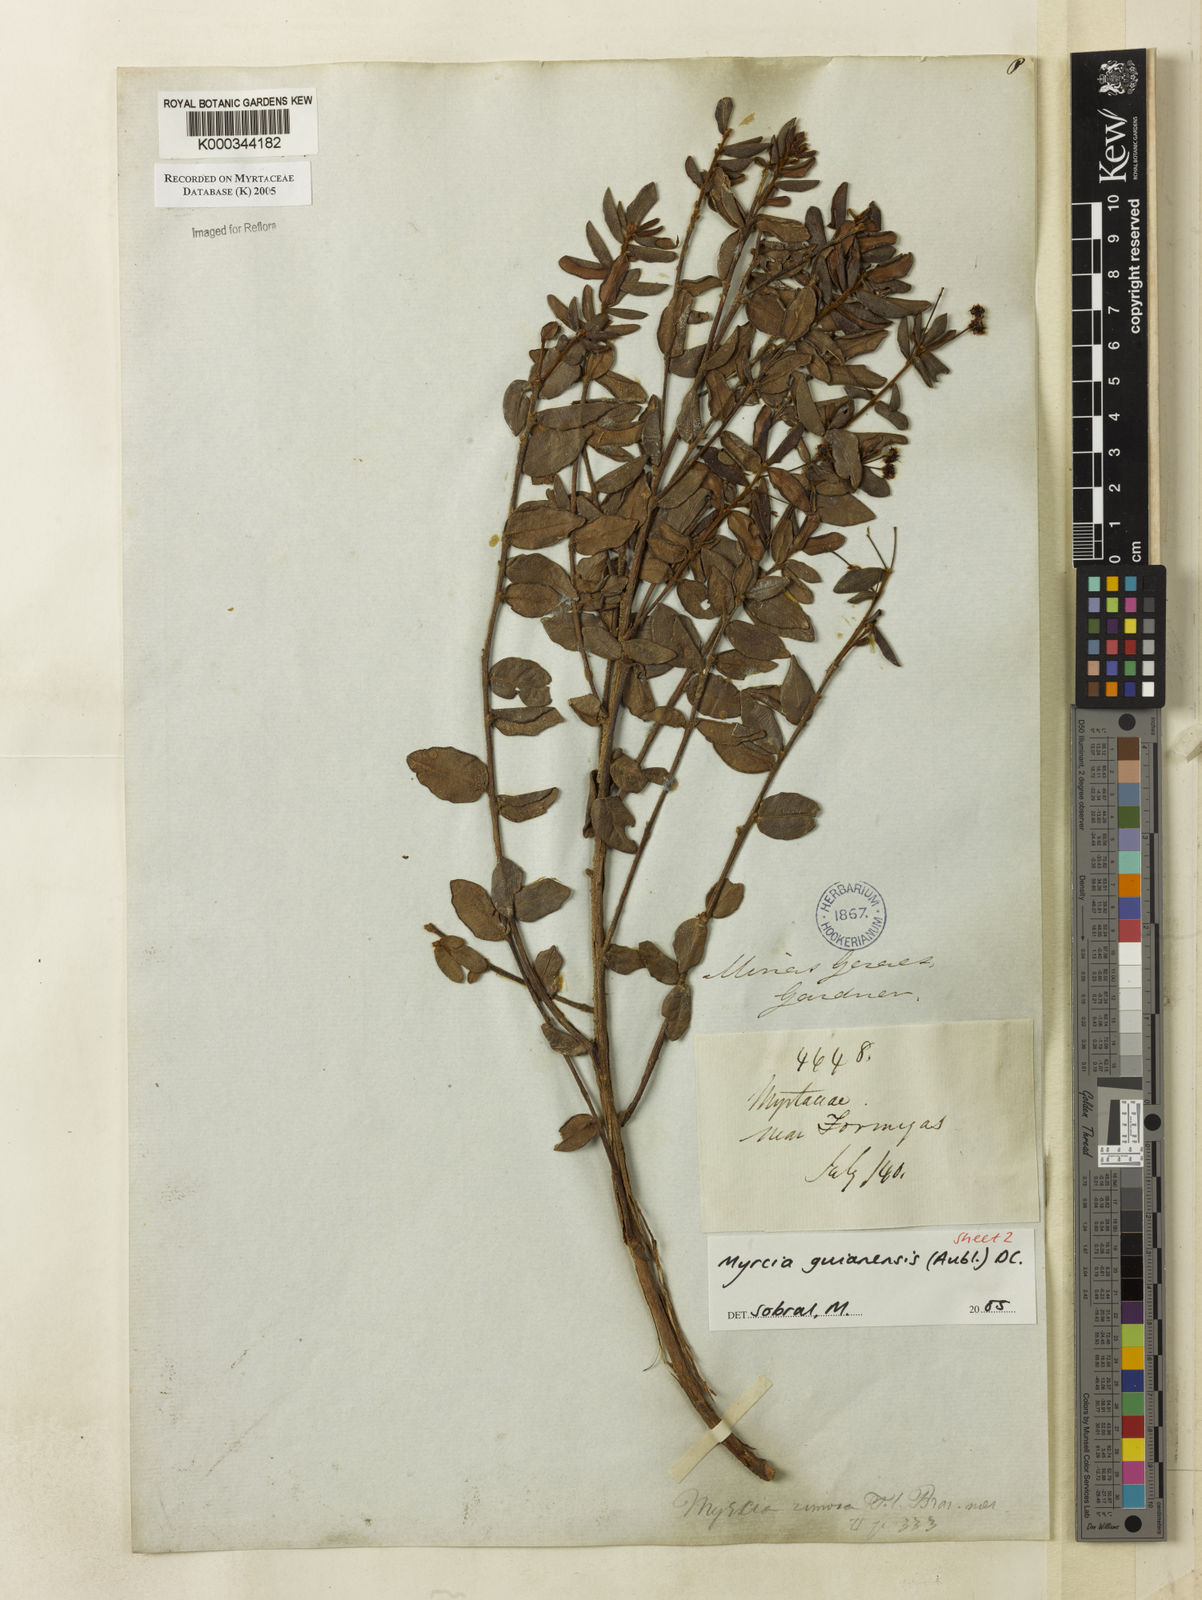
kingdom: Plantae
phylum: Tracheophyta
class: Magnoliopsida
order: Myrtales
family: Myrtaceae
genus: Myrcia
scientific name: Myrcia guianensis
